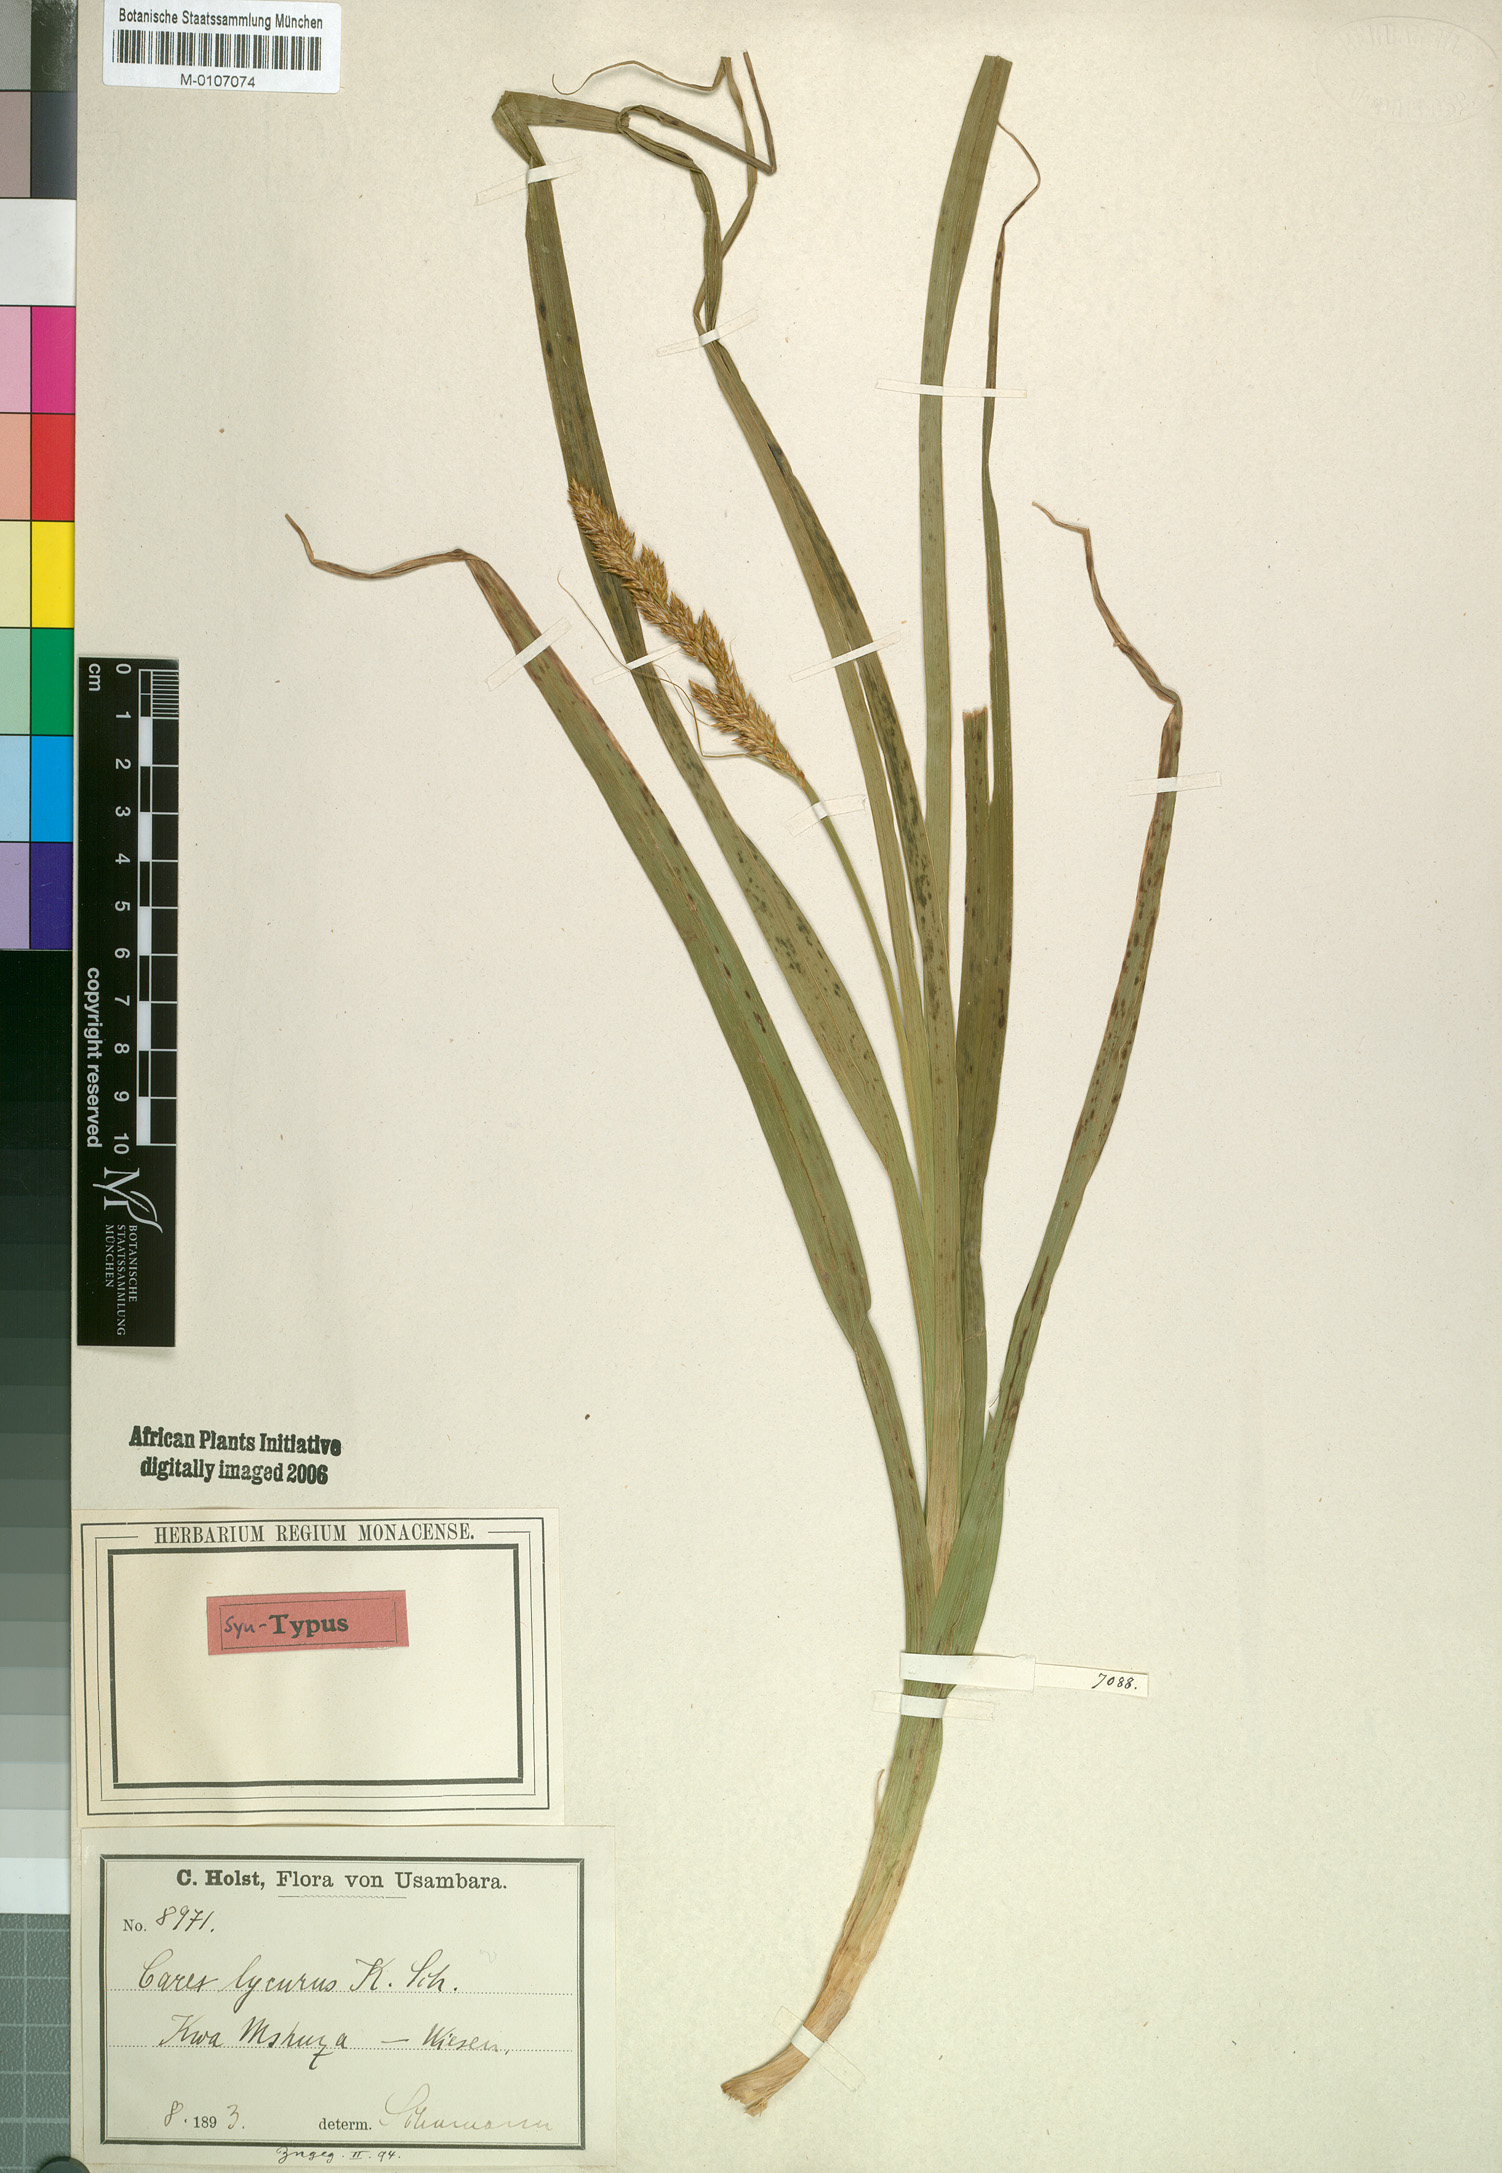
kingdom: Plantae
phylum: Tracheophyta
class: Liliopsida
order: Poales
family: Cyperaceae
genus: Carex
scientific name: Carex lycurus
